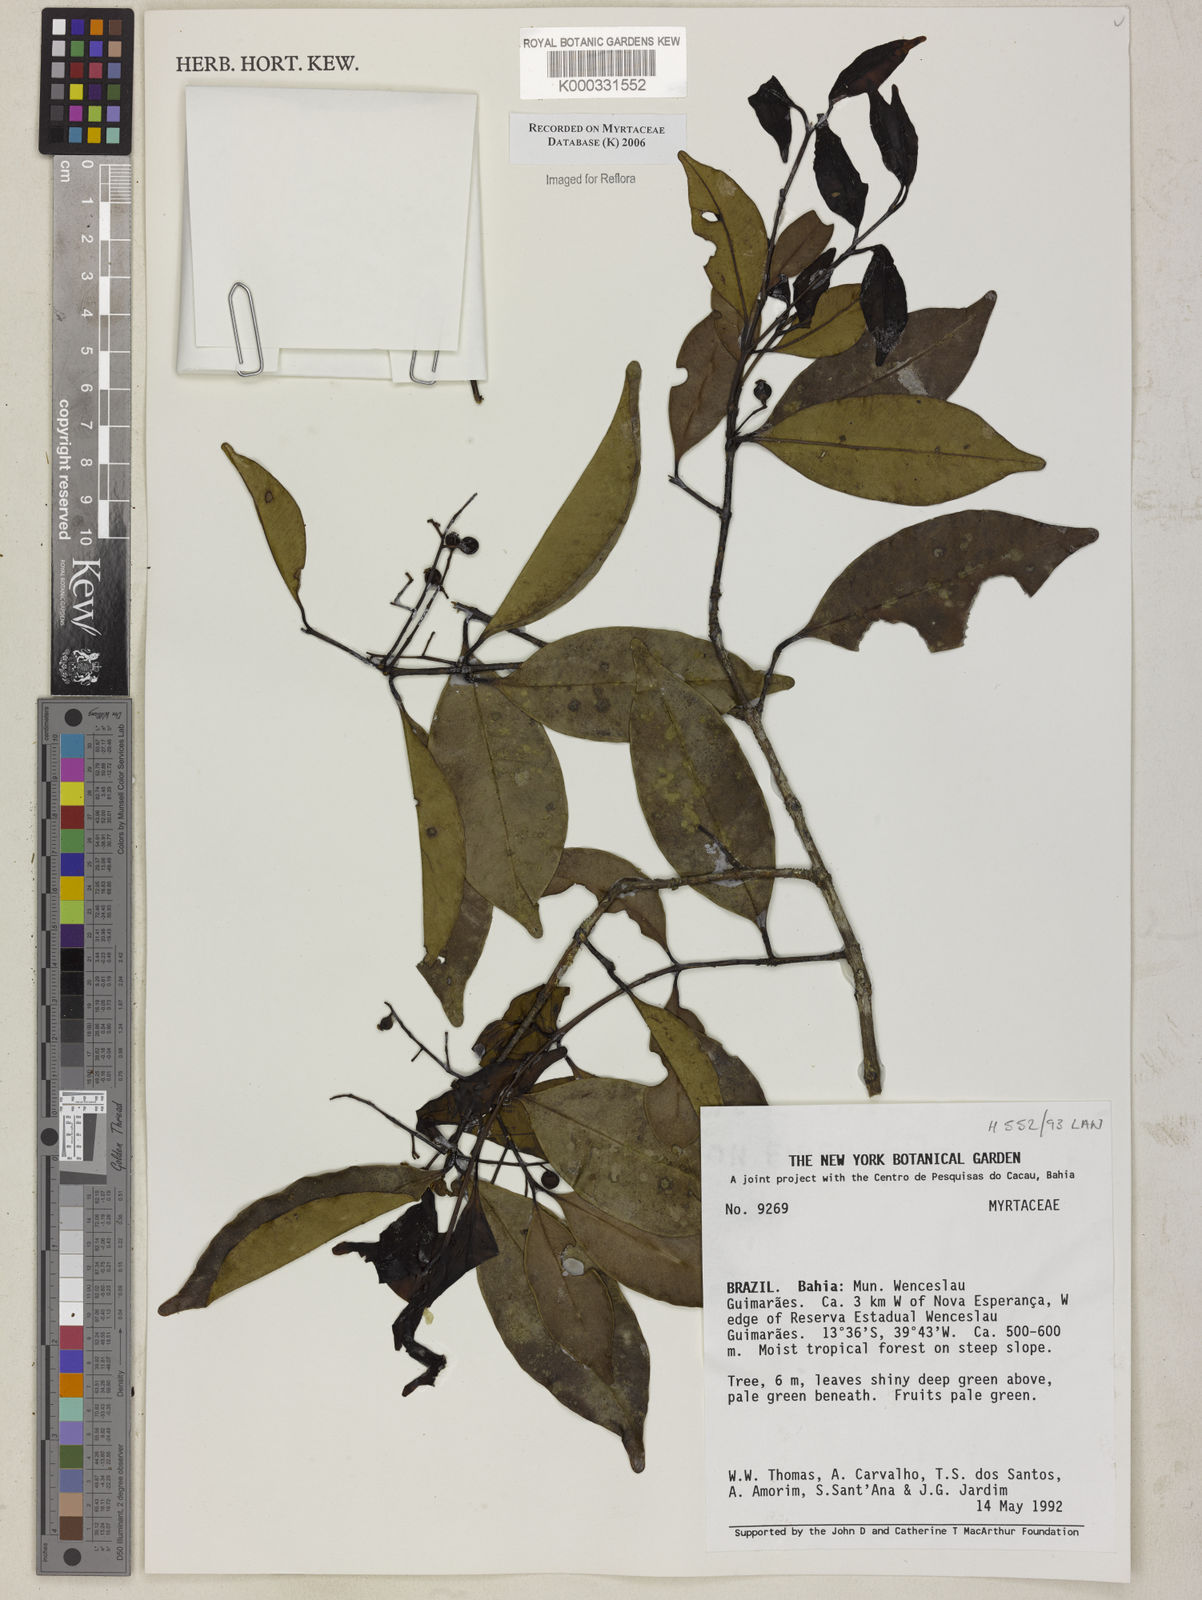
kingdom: Plantae
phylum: Tracheophyta
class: Magnoliopsida
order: Myrtales
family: Myrtaceae
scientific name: Myrtaceae
